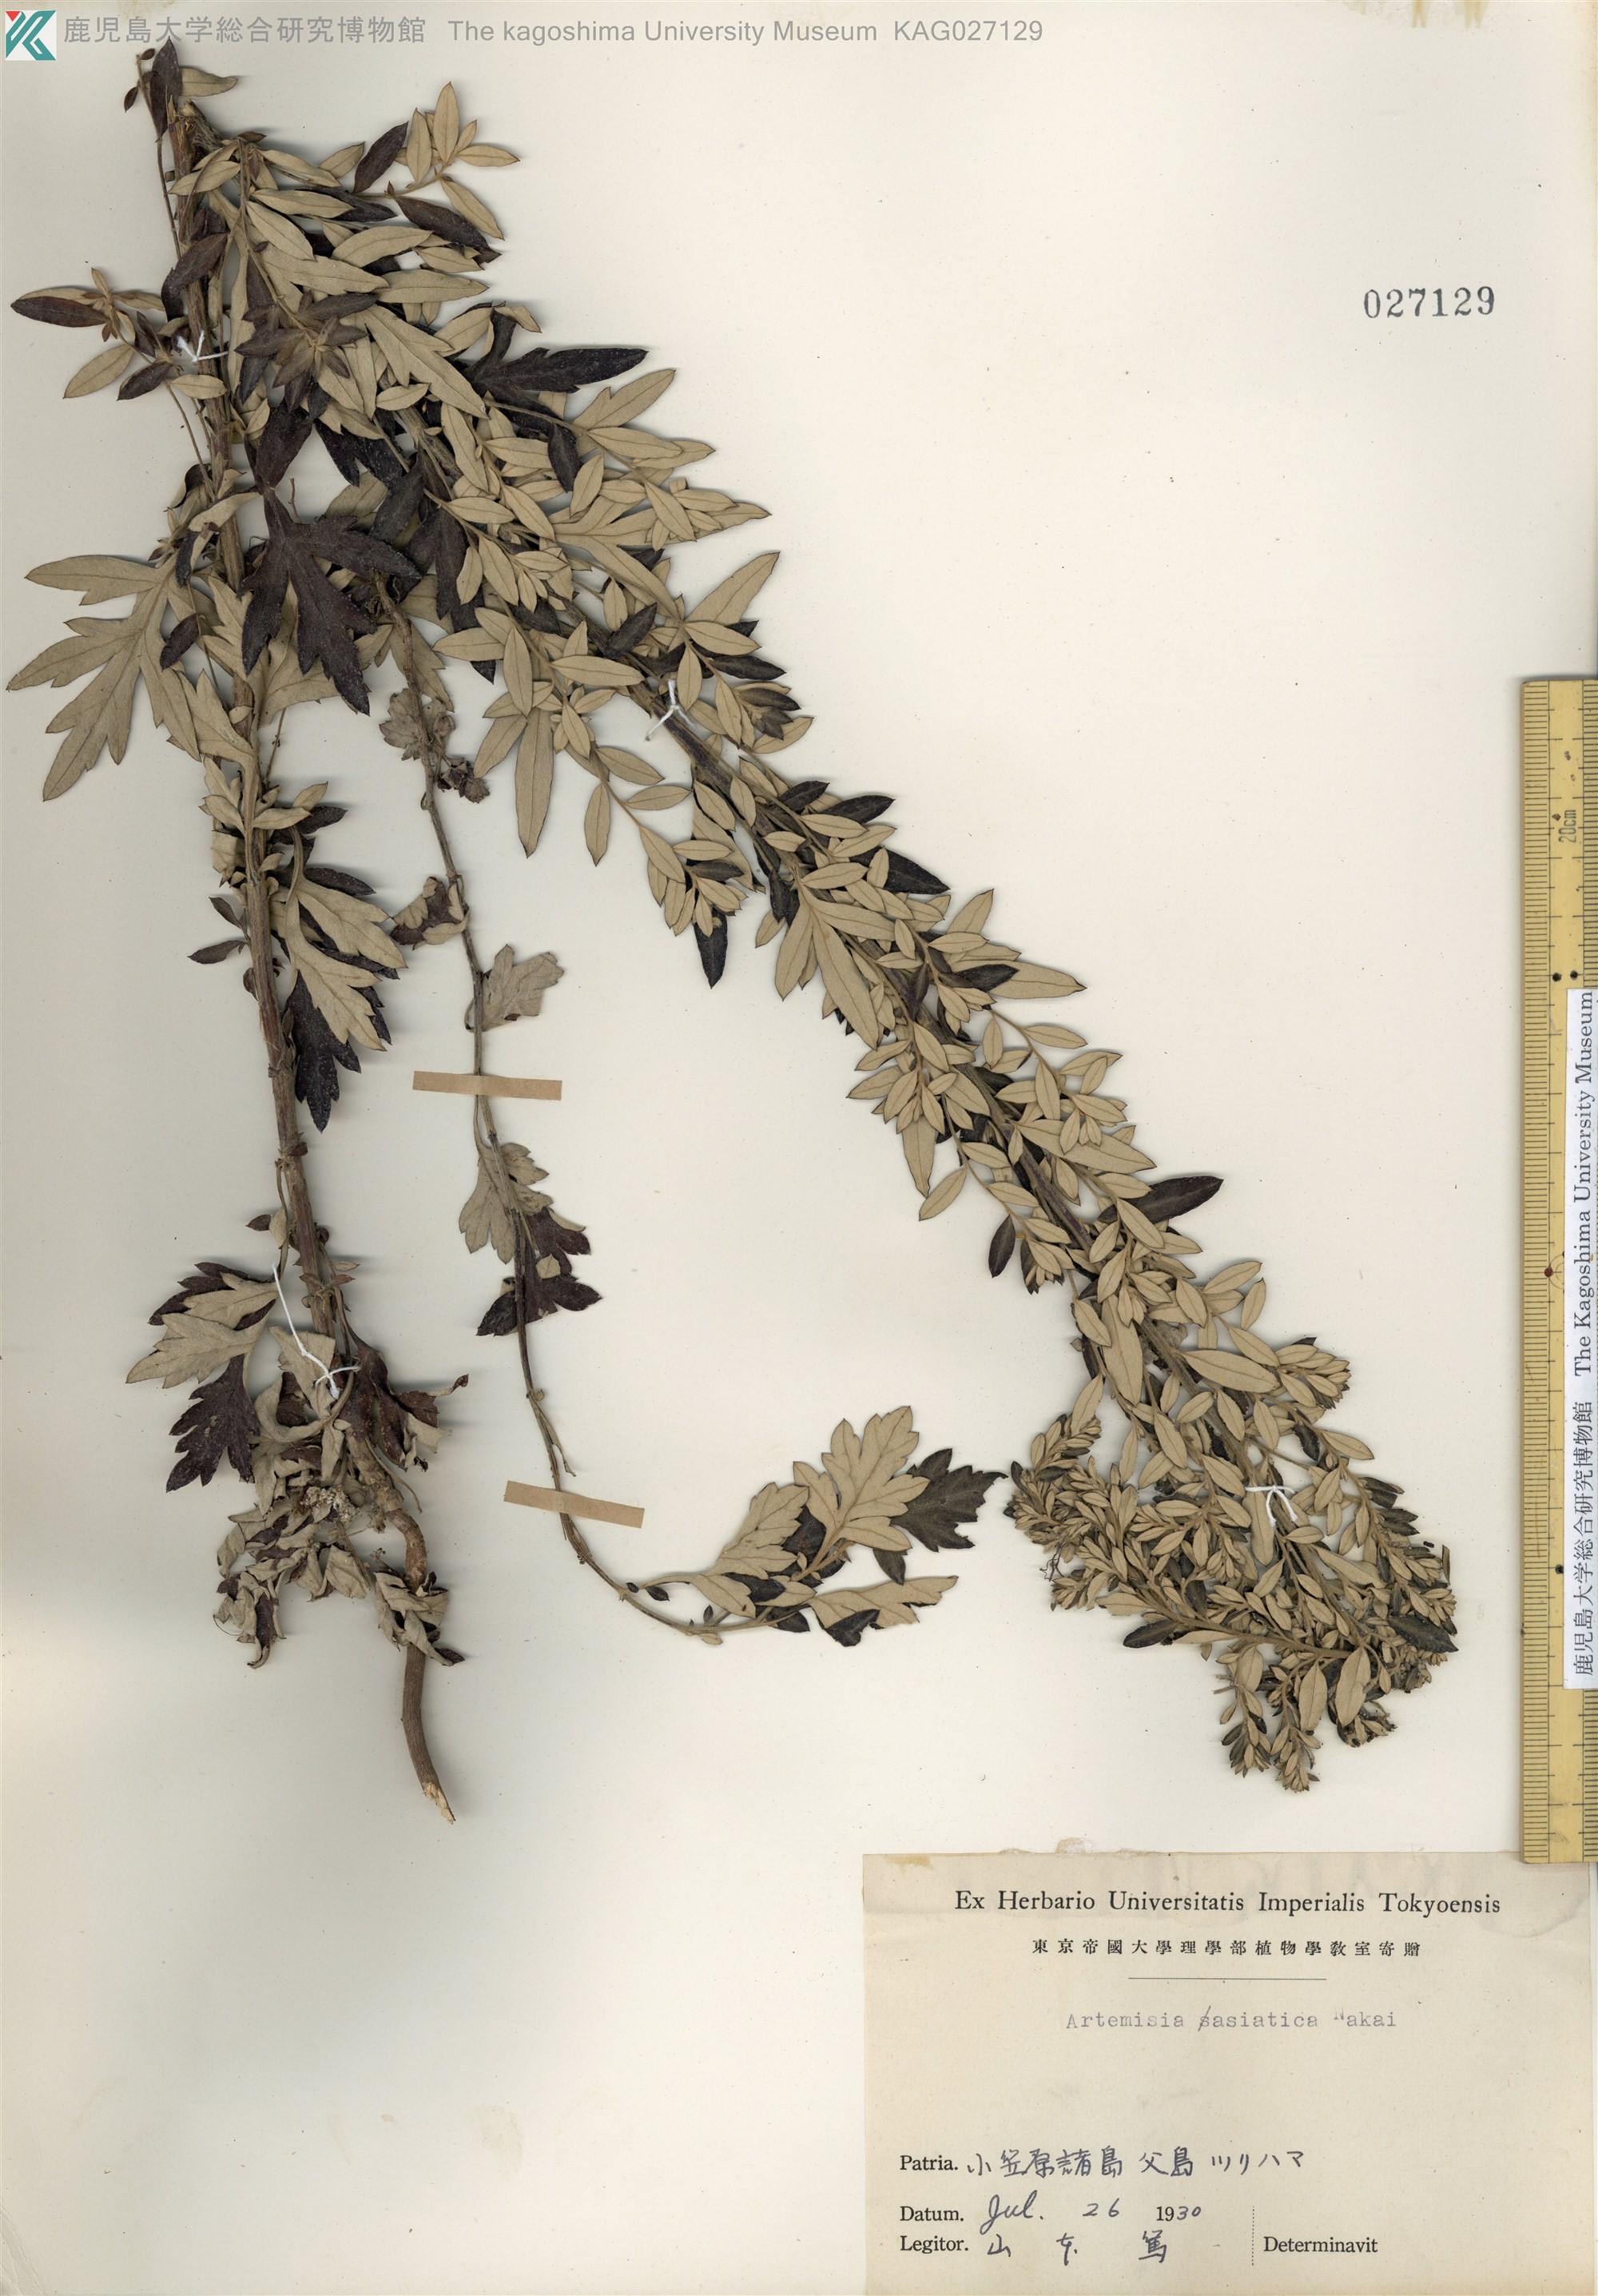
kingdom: Plantae
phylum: Tracheophyta
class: Magnoliopsida
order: Asterales
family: Asteraceae
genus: Artemisia
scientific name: Artemisia indica
